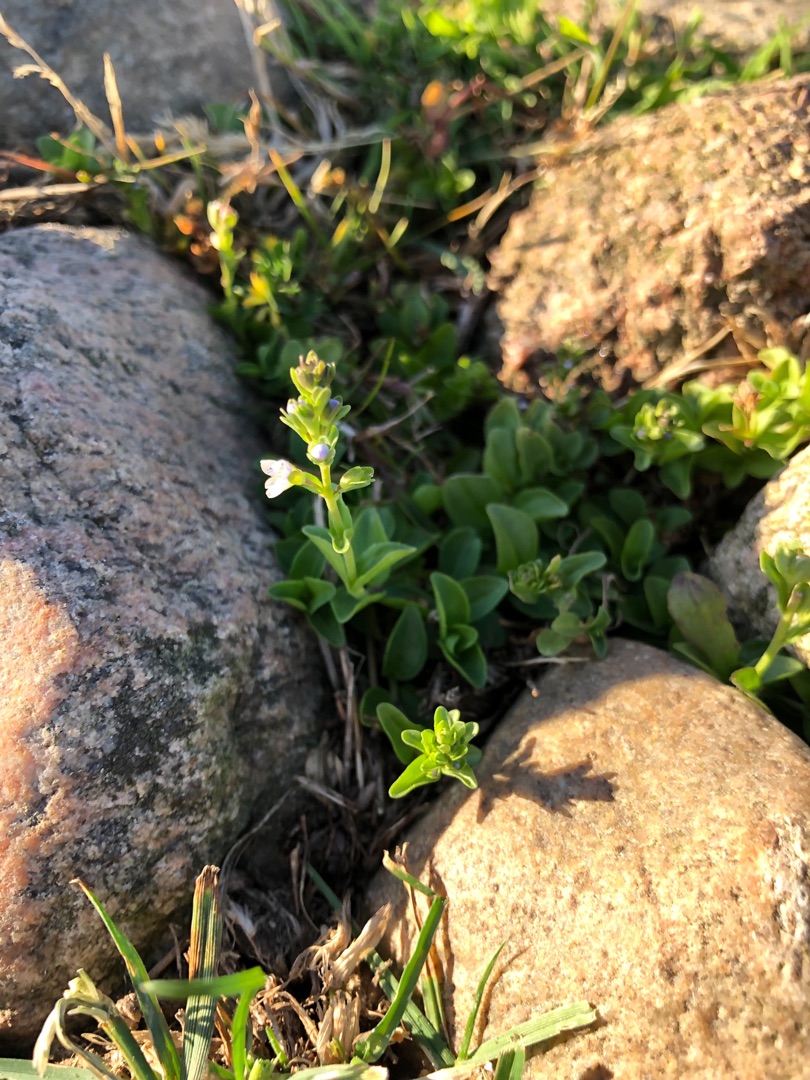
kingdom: Plantae
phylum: Tracheophyta
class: Magnoliopsida
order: Lamiales
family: Plantaginaceae
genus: Veronica
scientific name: Veronica serpyllifolia
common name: Glat ærenpris
